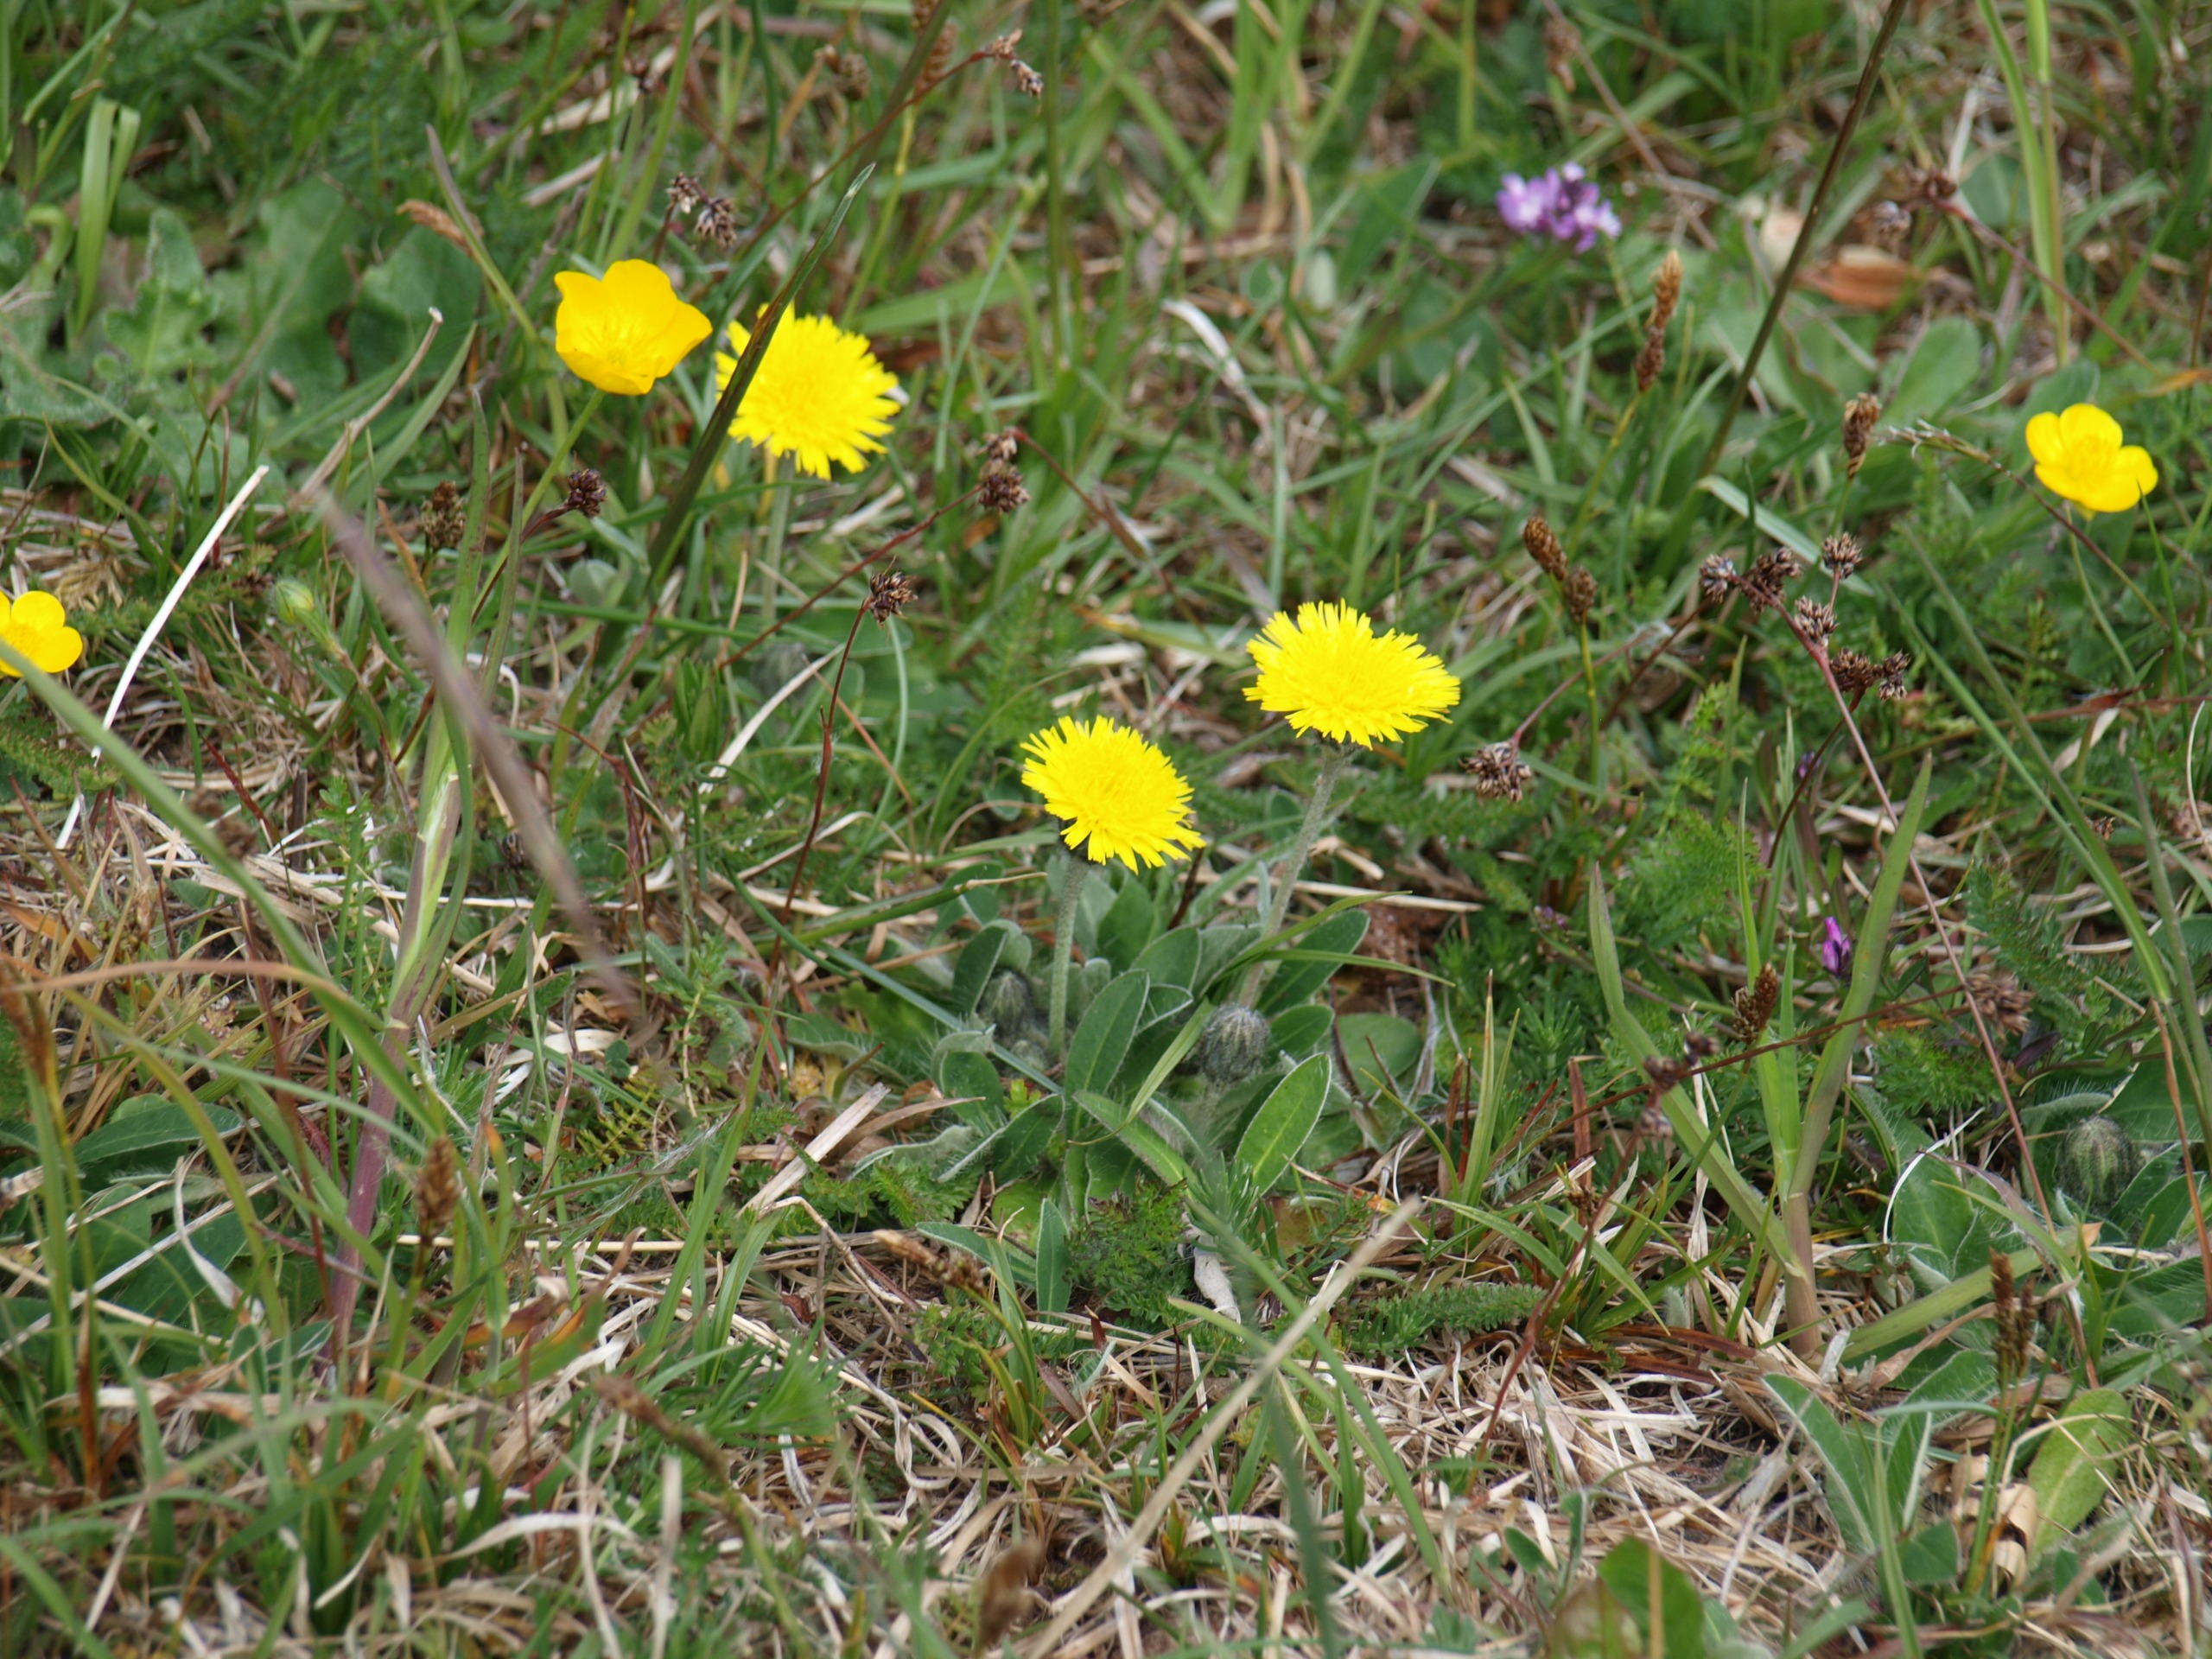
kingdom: Plantae
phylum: Tracheophyta
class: Magnoliopsida
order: Asterales
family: Asteraceae
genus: Pilosella
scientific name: Pilosella officinarum
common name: Håret høgeurt
